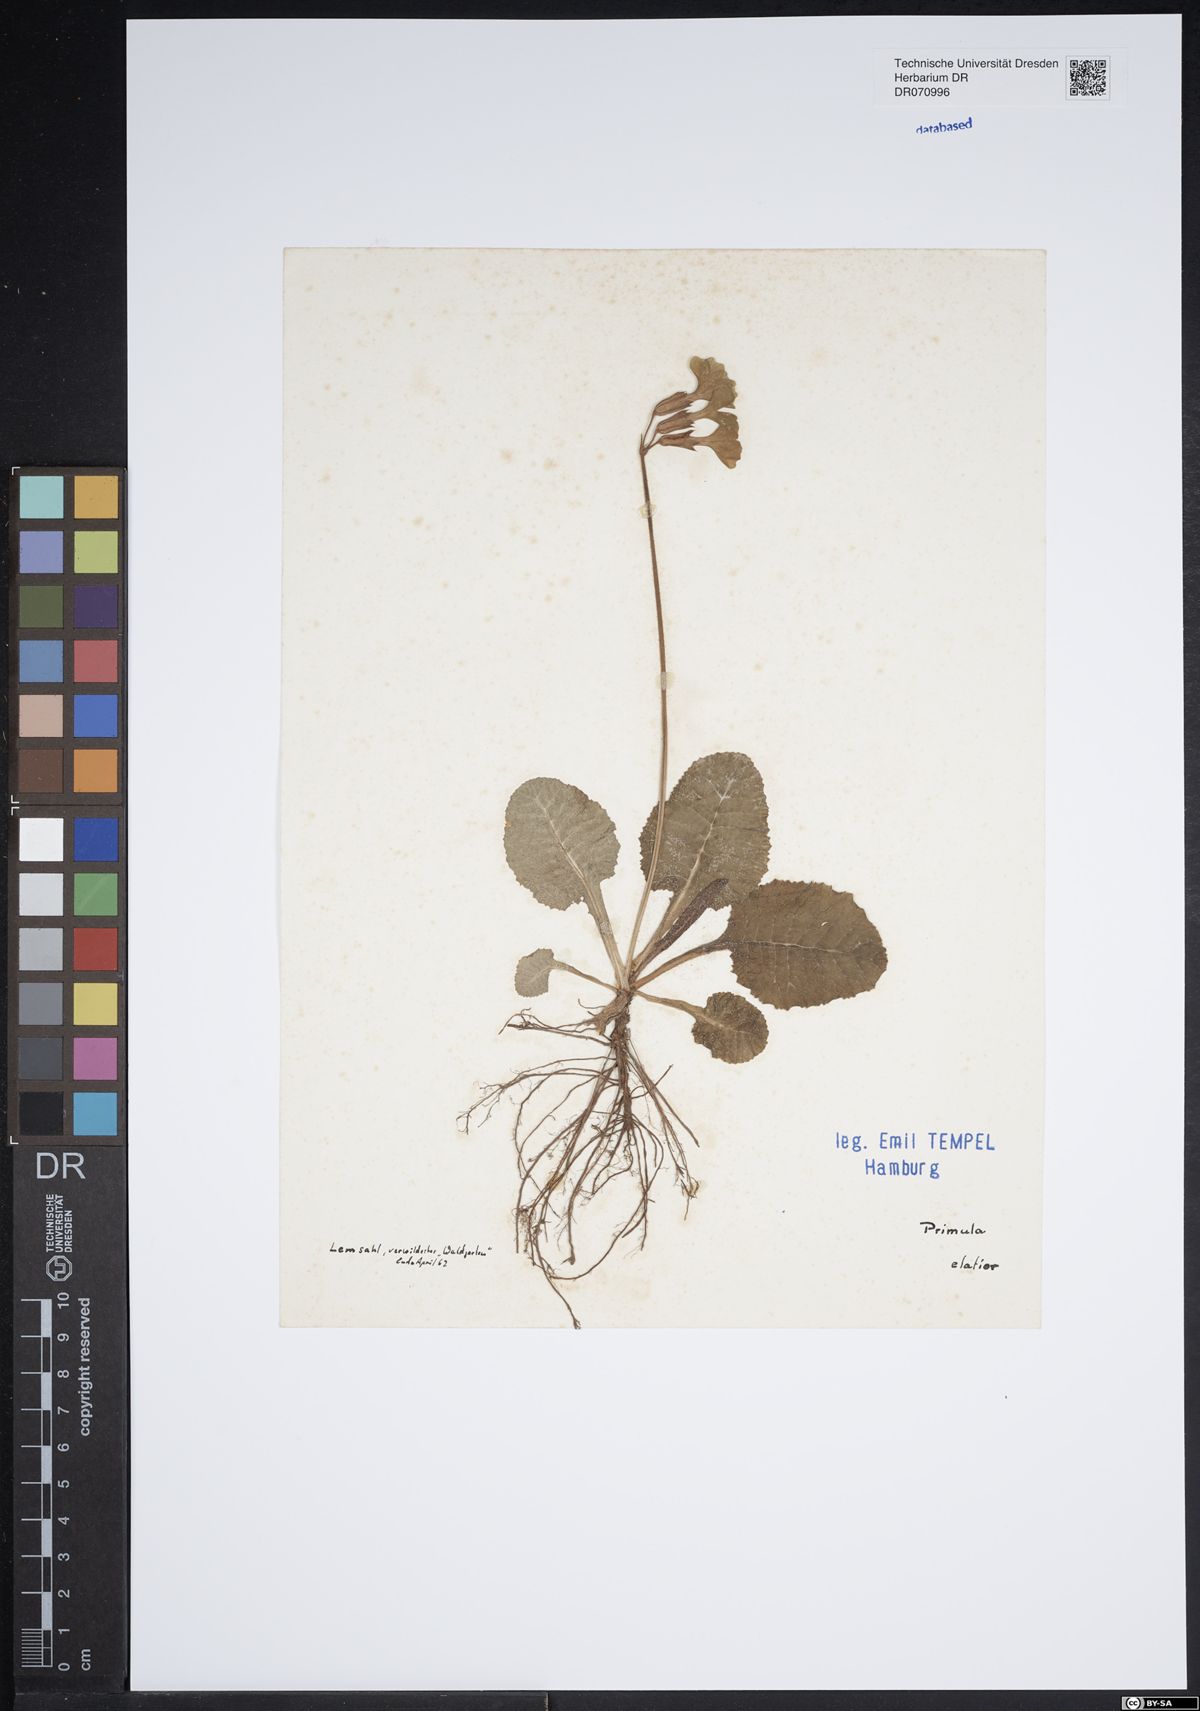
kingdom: Plantae
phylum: Tracheophyta
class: Magnoliopsida
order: Ericales
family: Primulaceae
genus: Primula
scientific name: Primula elatior
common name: Oxlip
